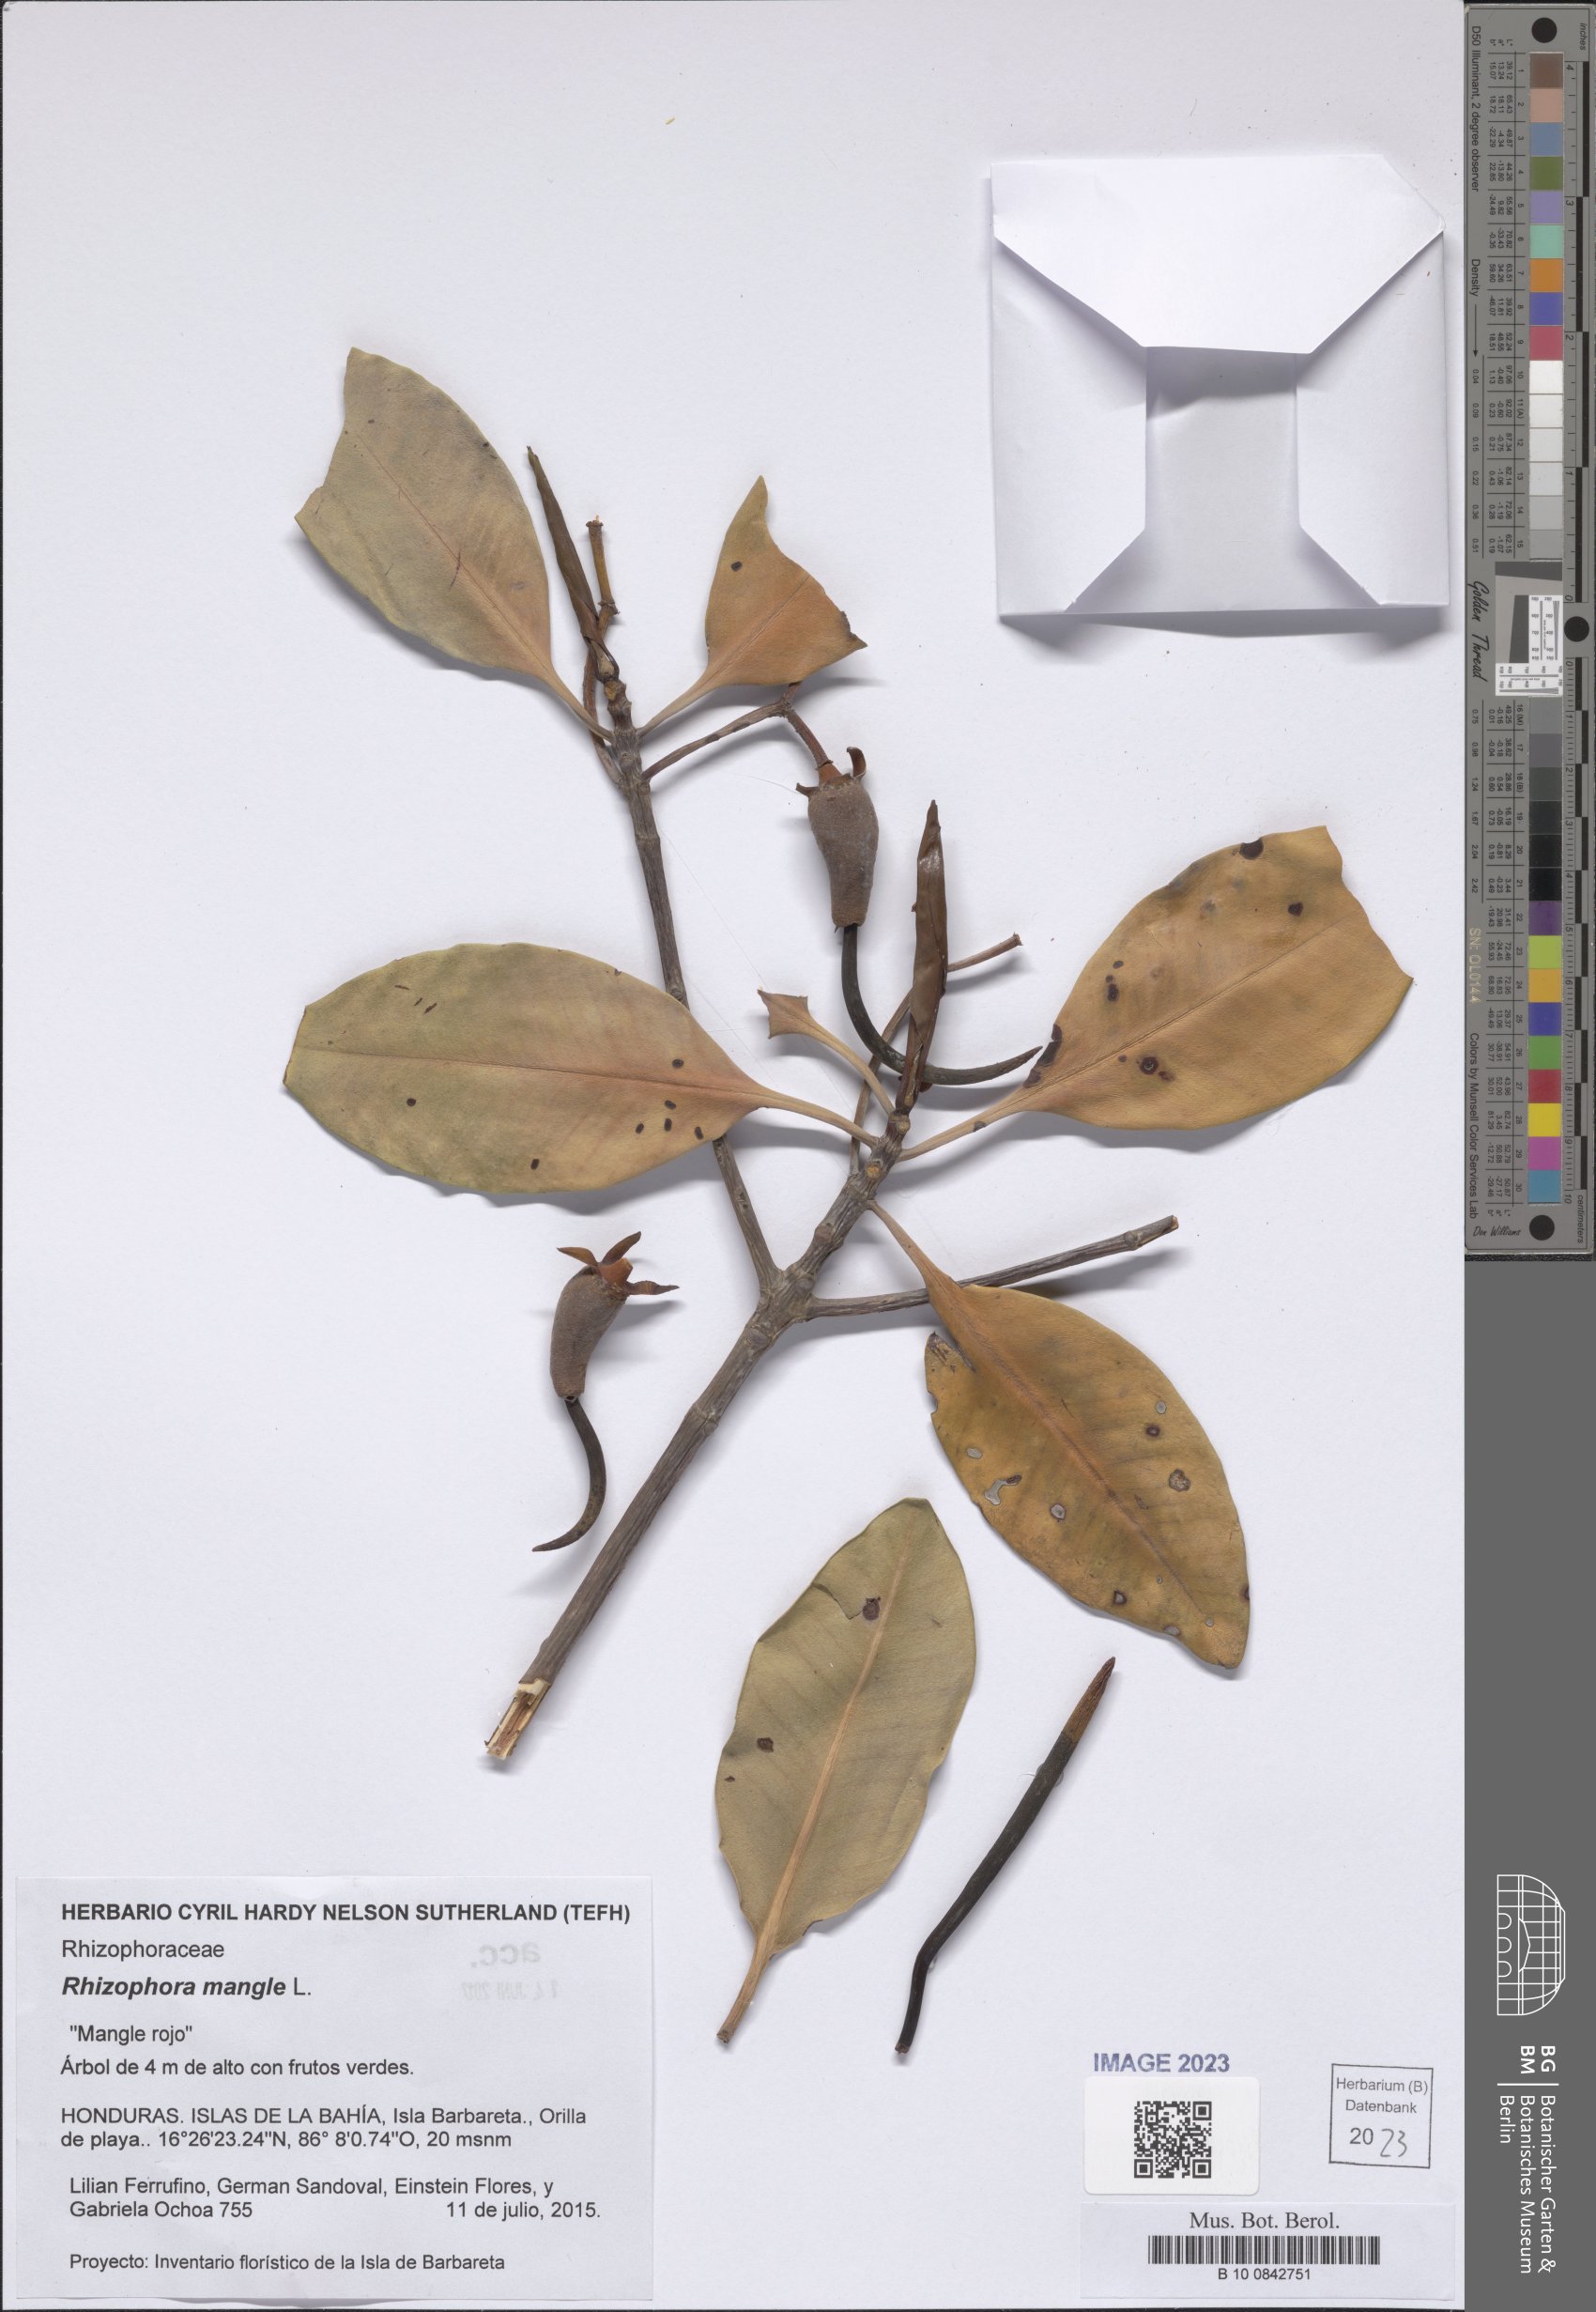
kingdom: Plantae
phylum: Tracheophyta
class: Magnoliopsida
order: Malpighiales
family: Rhizophoraceae
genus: Rhizophora
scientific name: Rhizophora mangle
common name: Red mangrove
